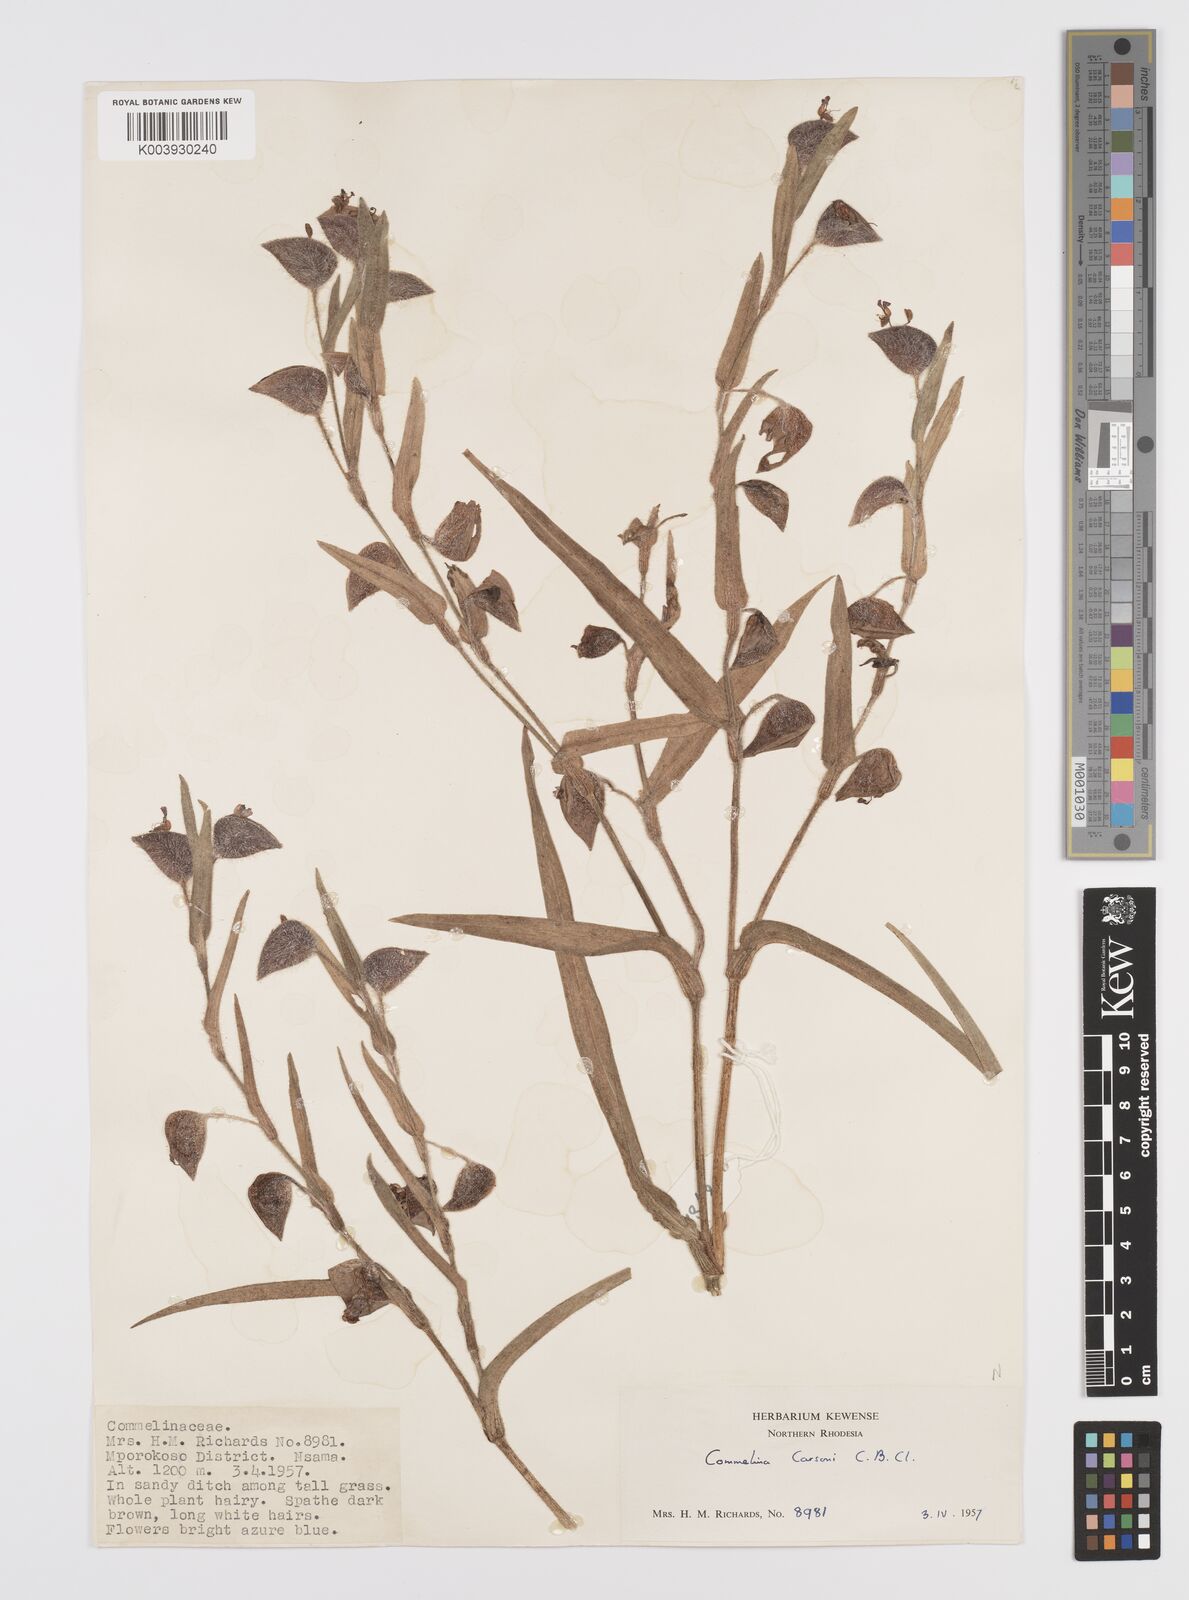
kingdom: Plantae
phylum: Tracheophyta
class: Liliopsida
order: Commelinales
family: Commelinaceae
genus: Commelina
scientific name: Commelina schweinfurthii
